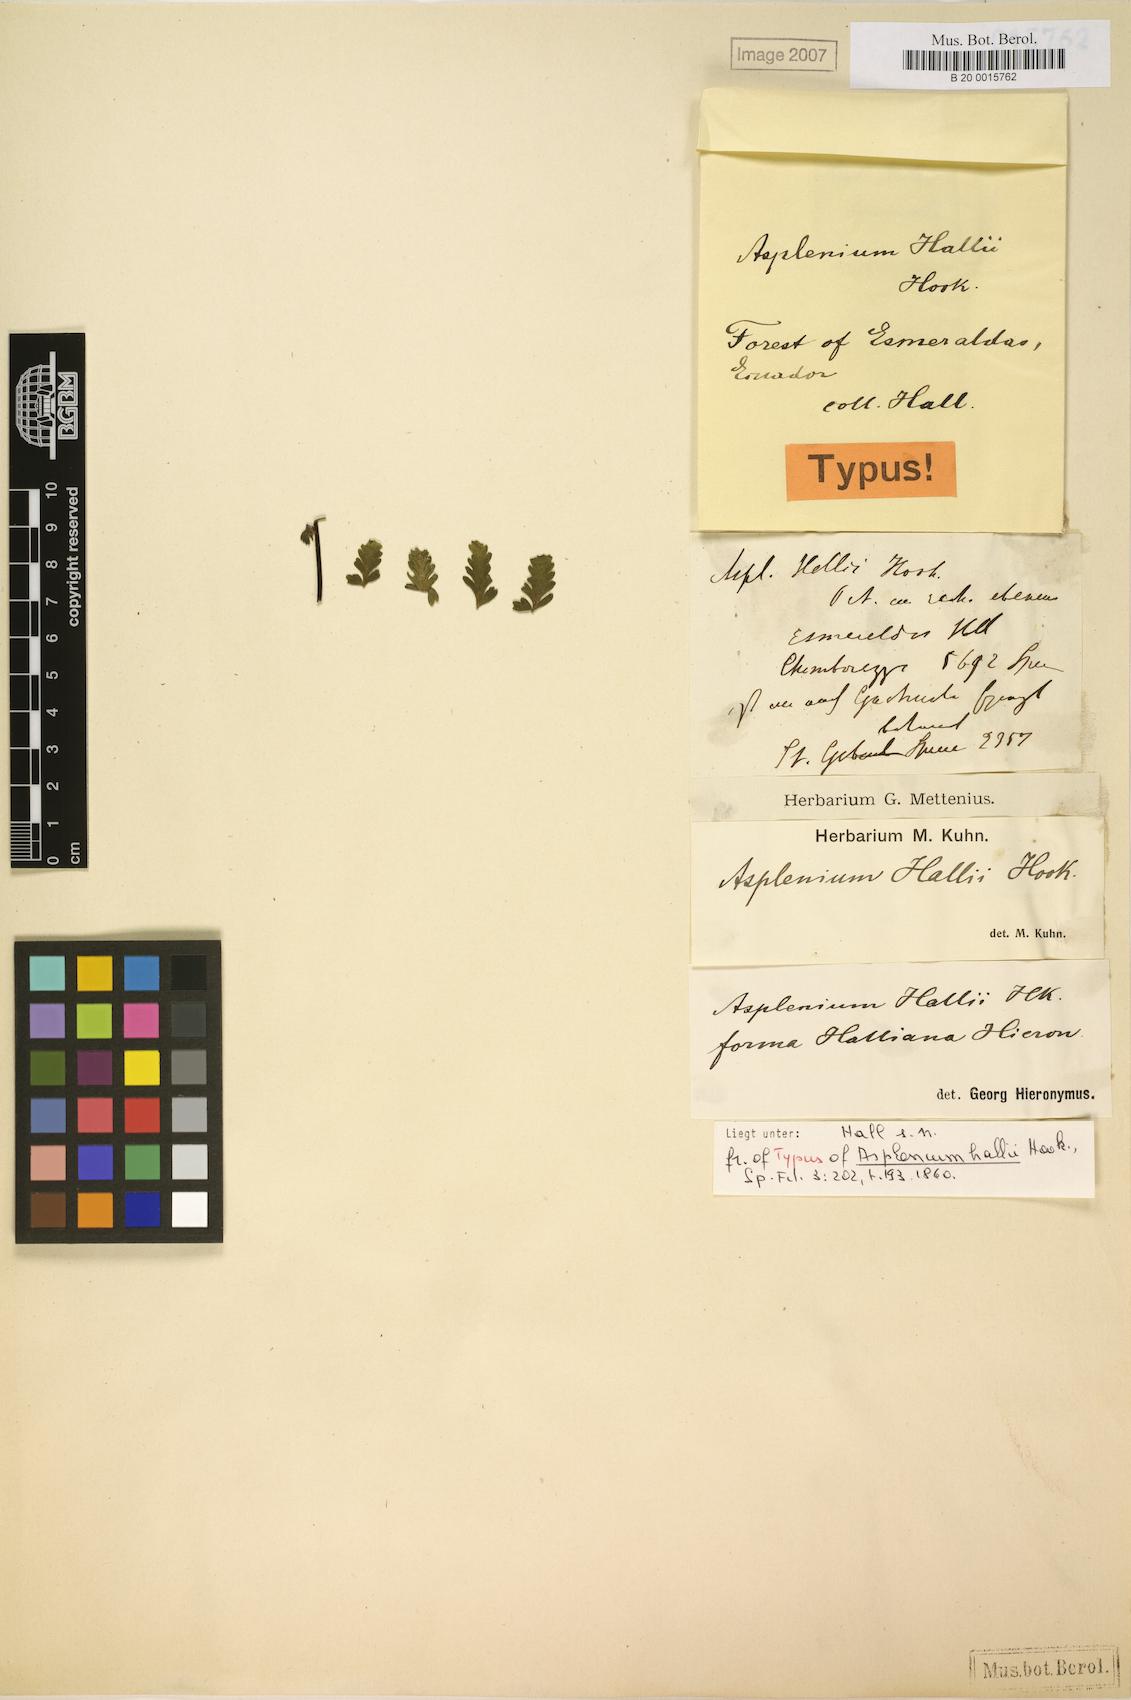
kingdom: Plantae
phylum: Tracheophyta
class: Polypodiopsida
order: Polypodiales
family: Aspleniaceae
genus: Asplenium
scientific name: Asplenium hallii
